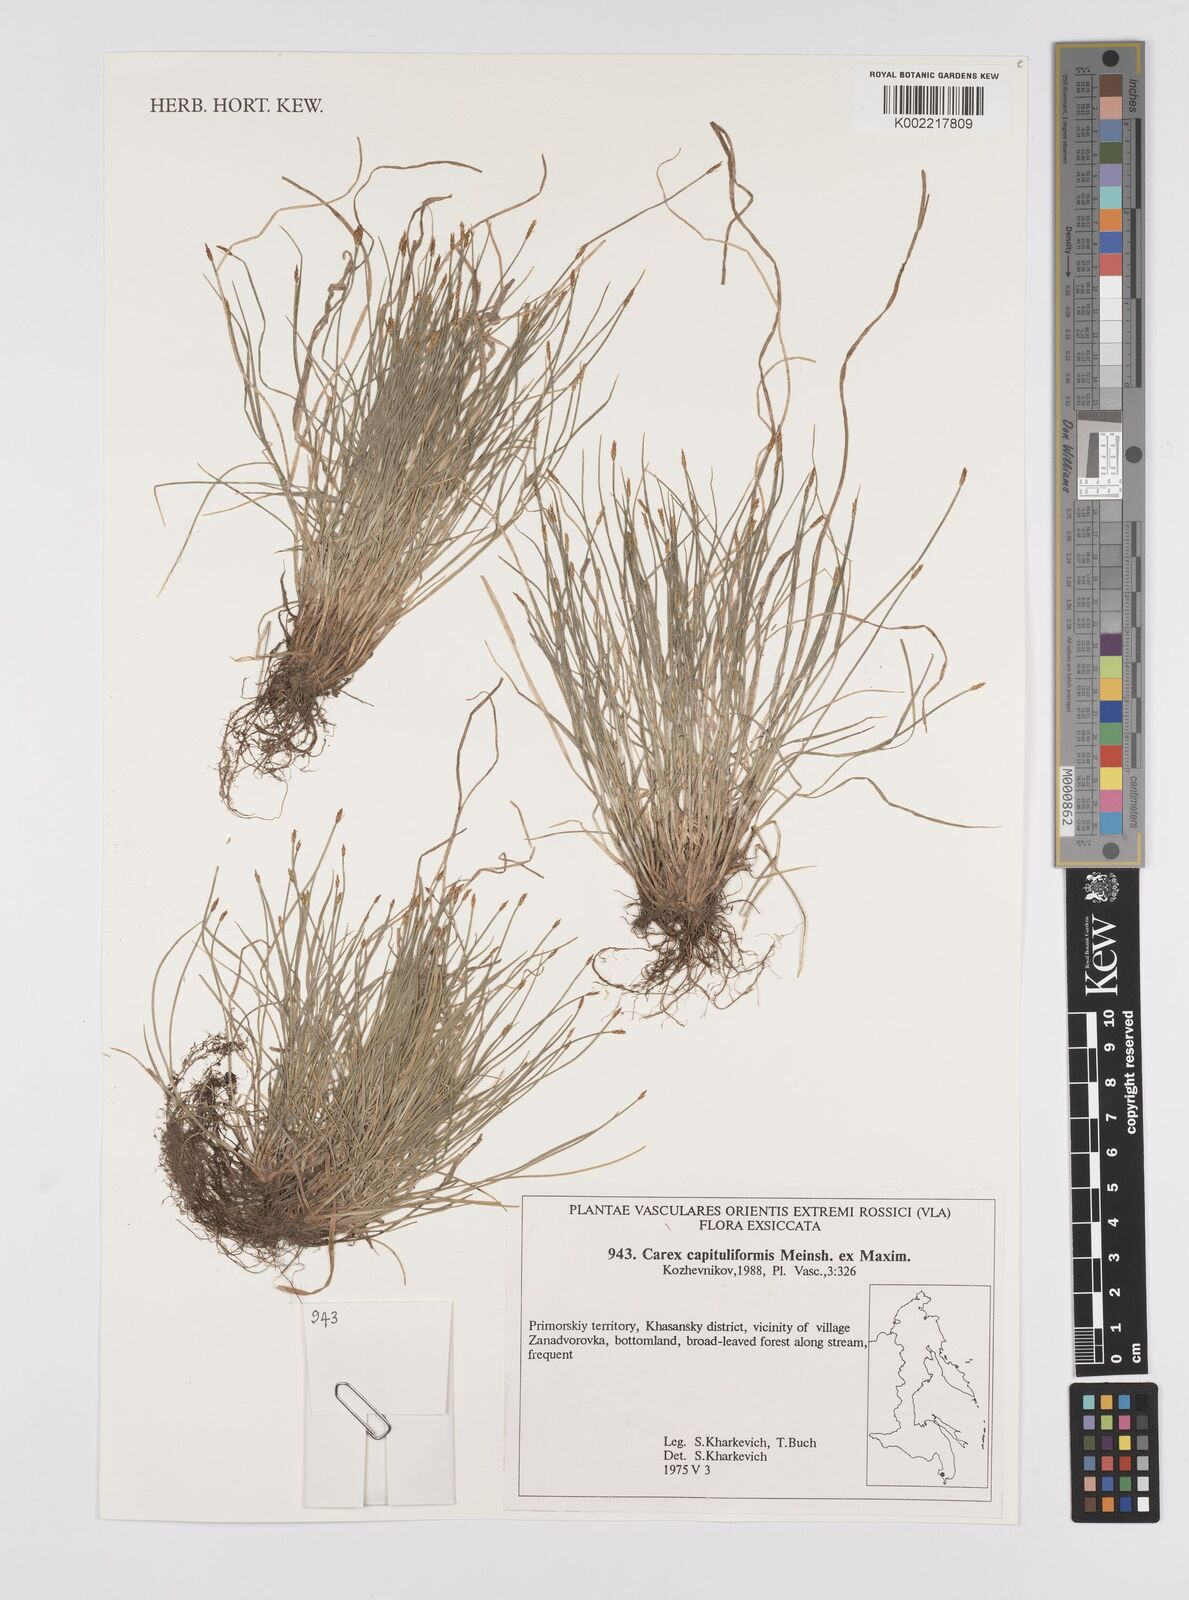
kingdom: Plantae
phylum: Tracheophyta
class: Liliopsida
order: Poales
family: Cyperaceae
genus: Carex
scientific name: Carex onoei
